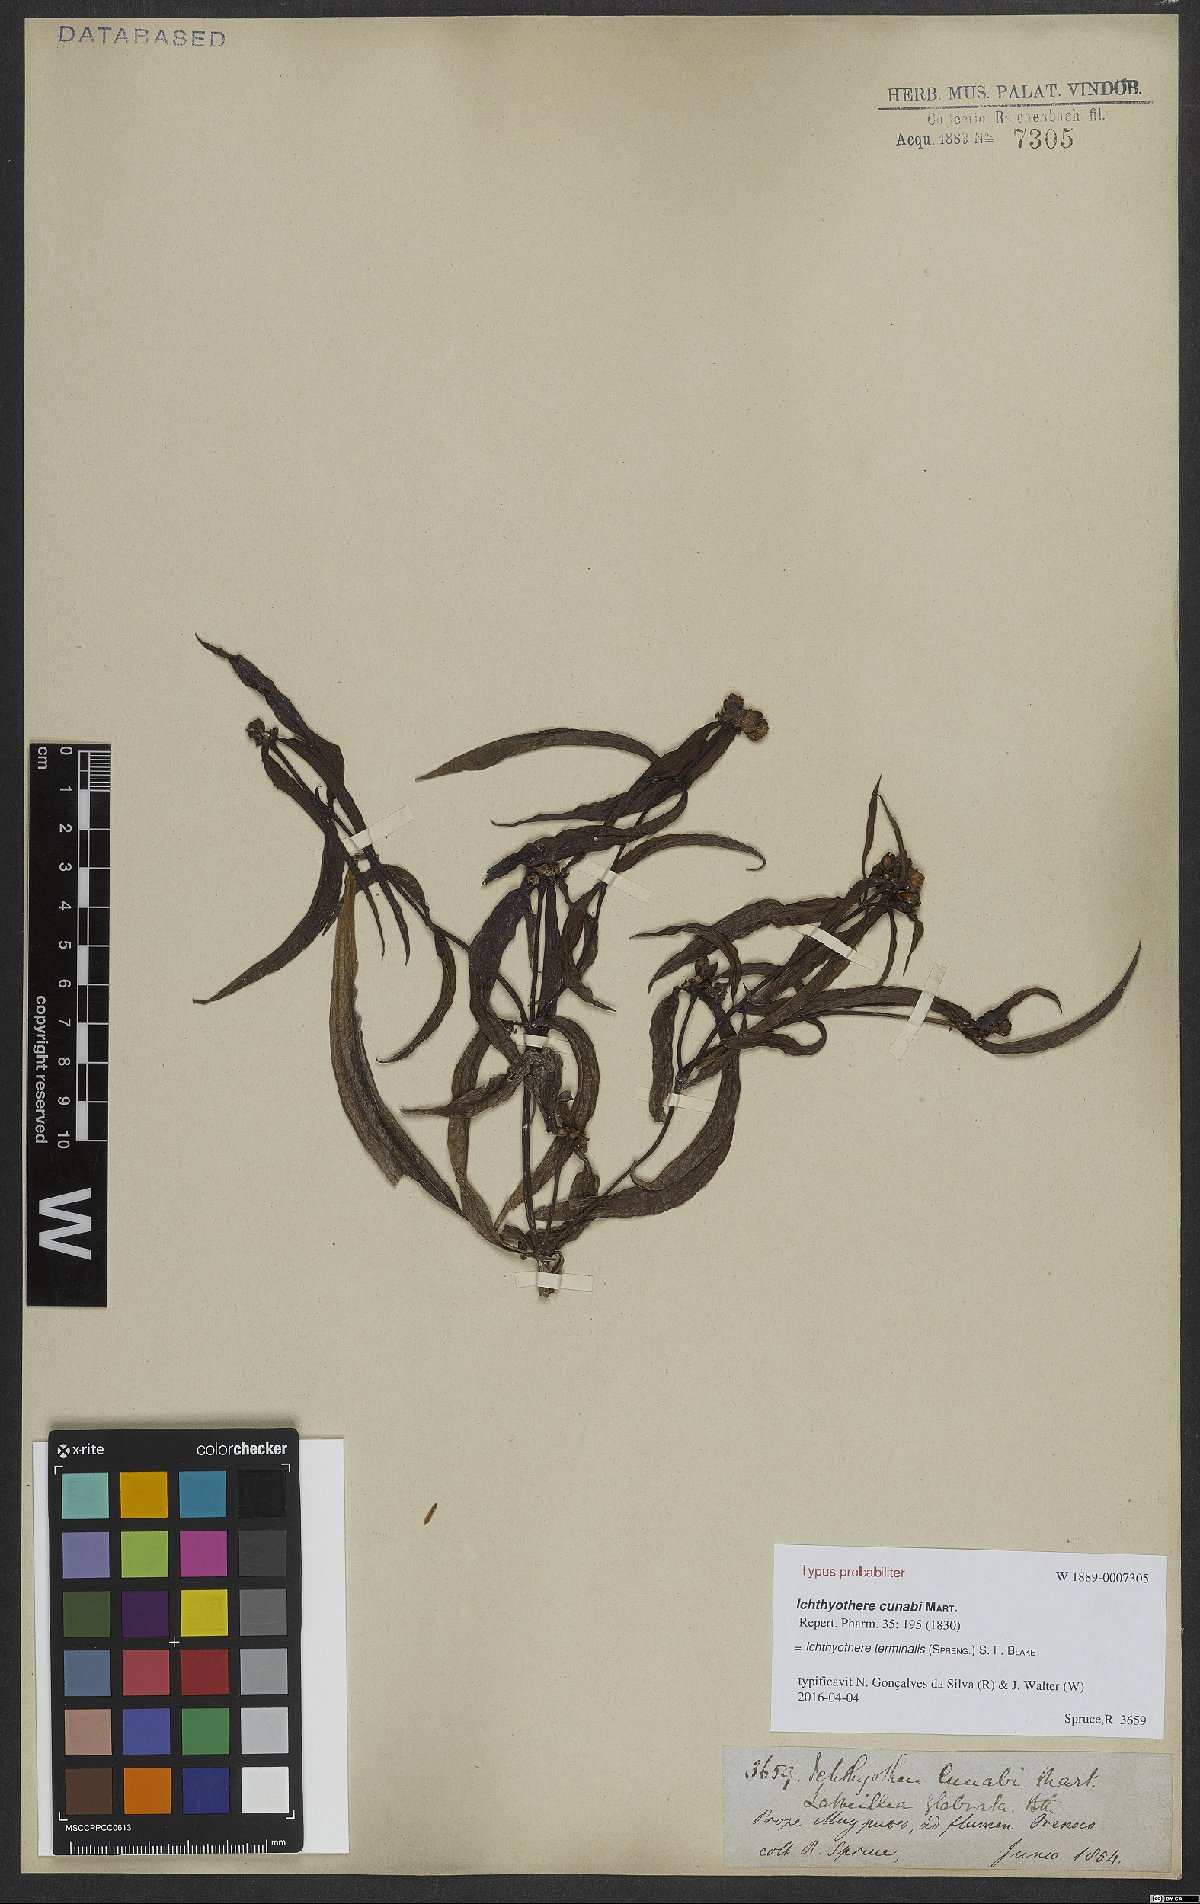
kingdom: Plantae
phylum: Tracheophyta
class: Magnoliopsida
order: Asterales
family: Asteraceae
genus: Ichthyothere
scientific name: Ichthyothere terminalis
